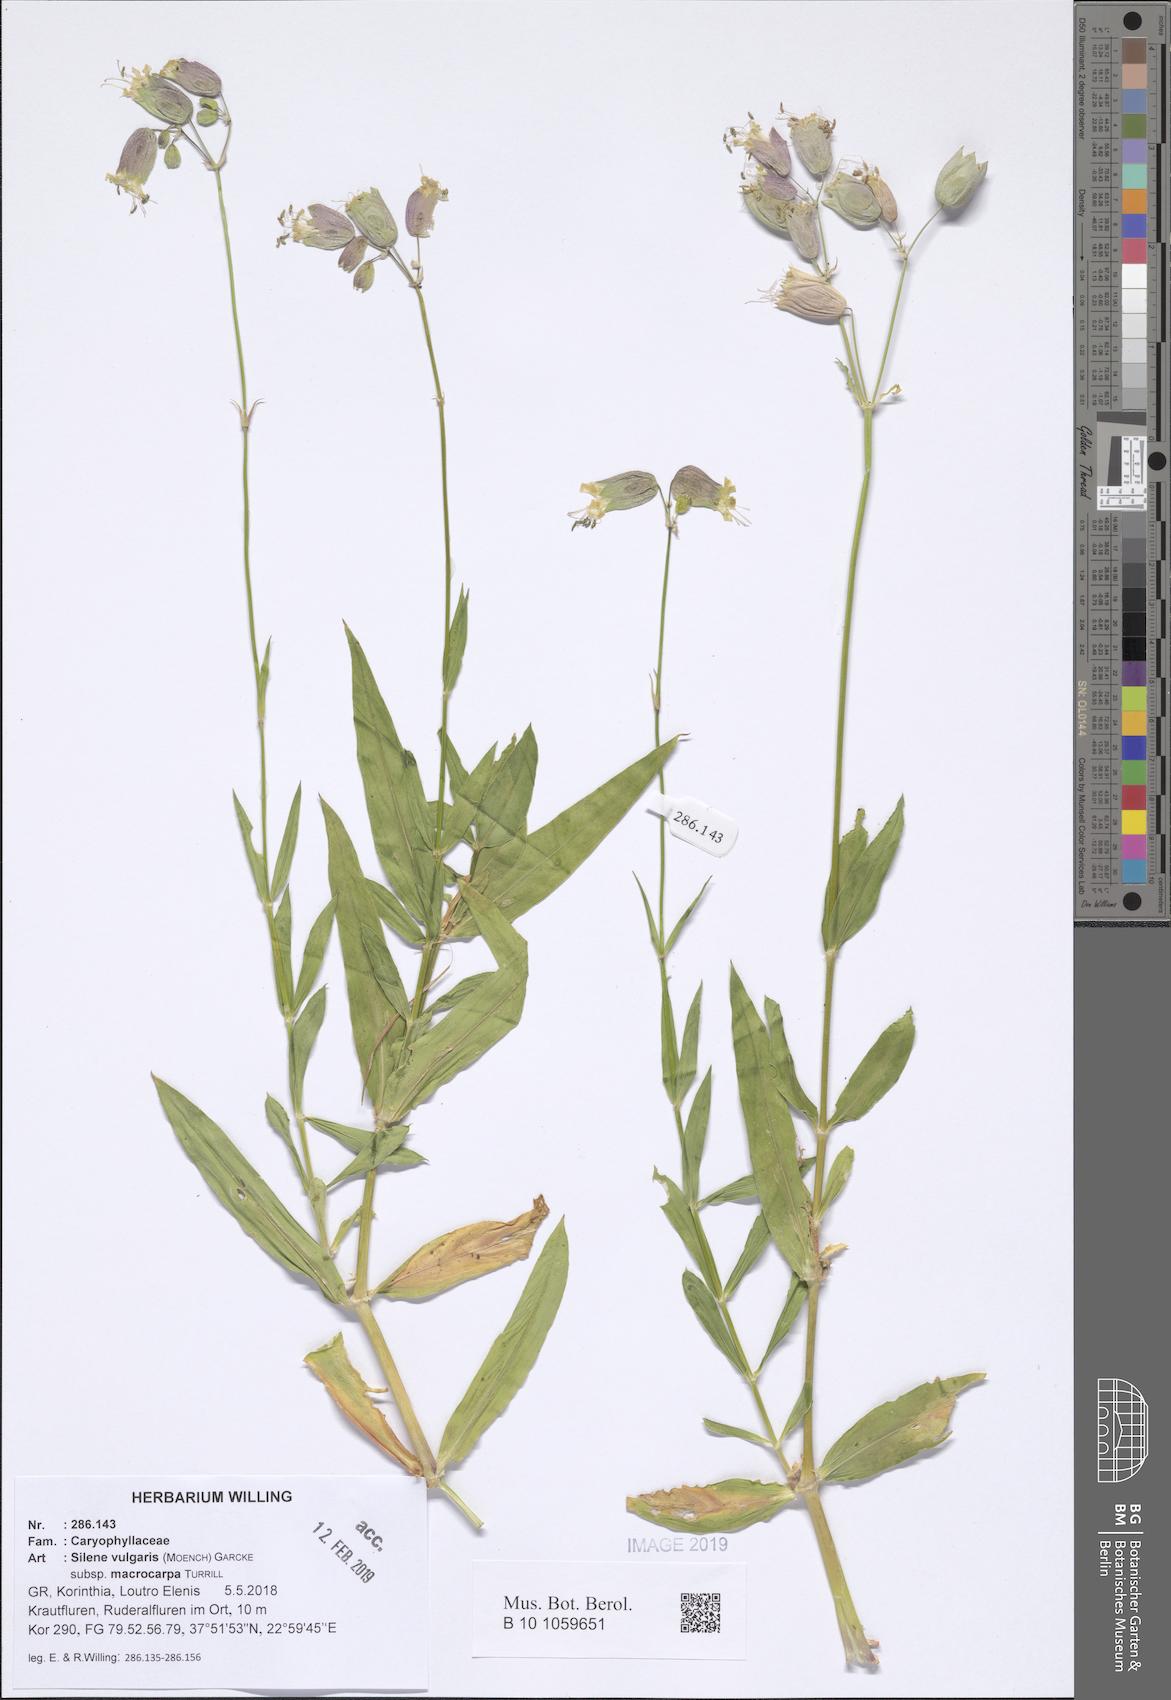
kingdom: Plantae
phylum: Tracheophyta
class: Magnoliopsida
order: Caryophyllales
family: Caryophyllaceae
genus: Silene
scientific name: Silene vulgaris
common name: Bladder campion
